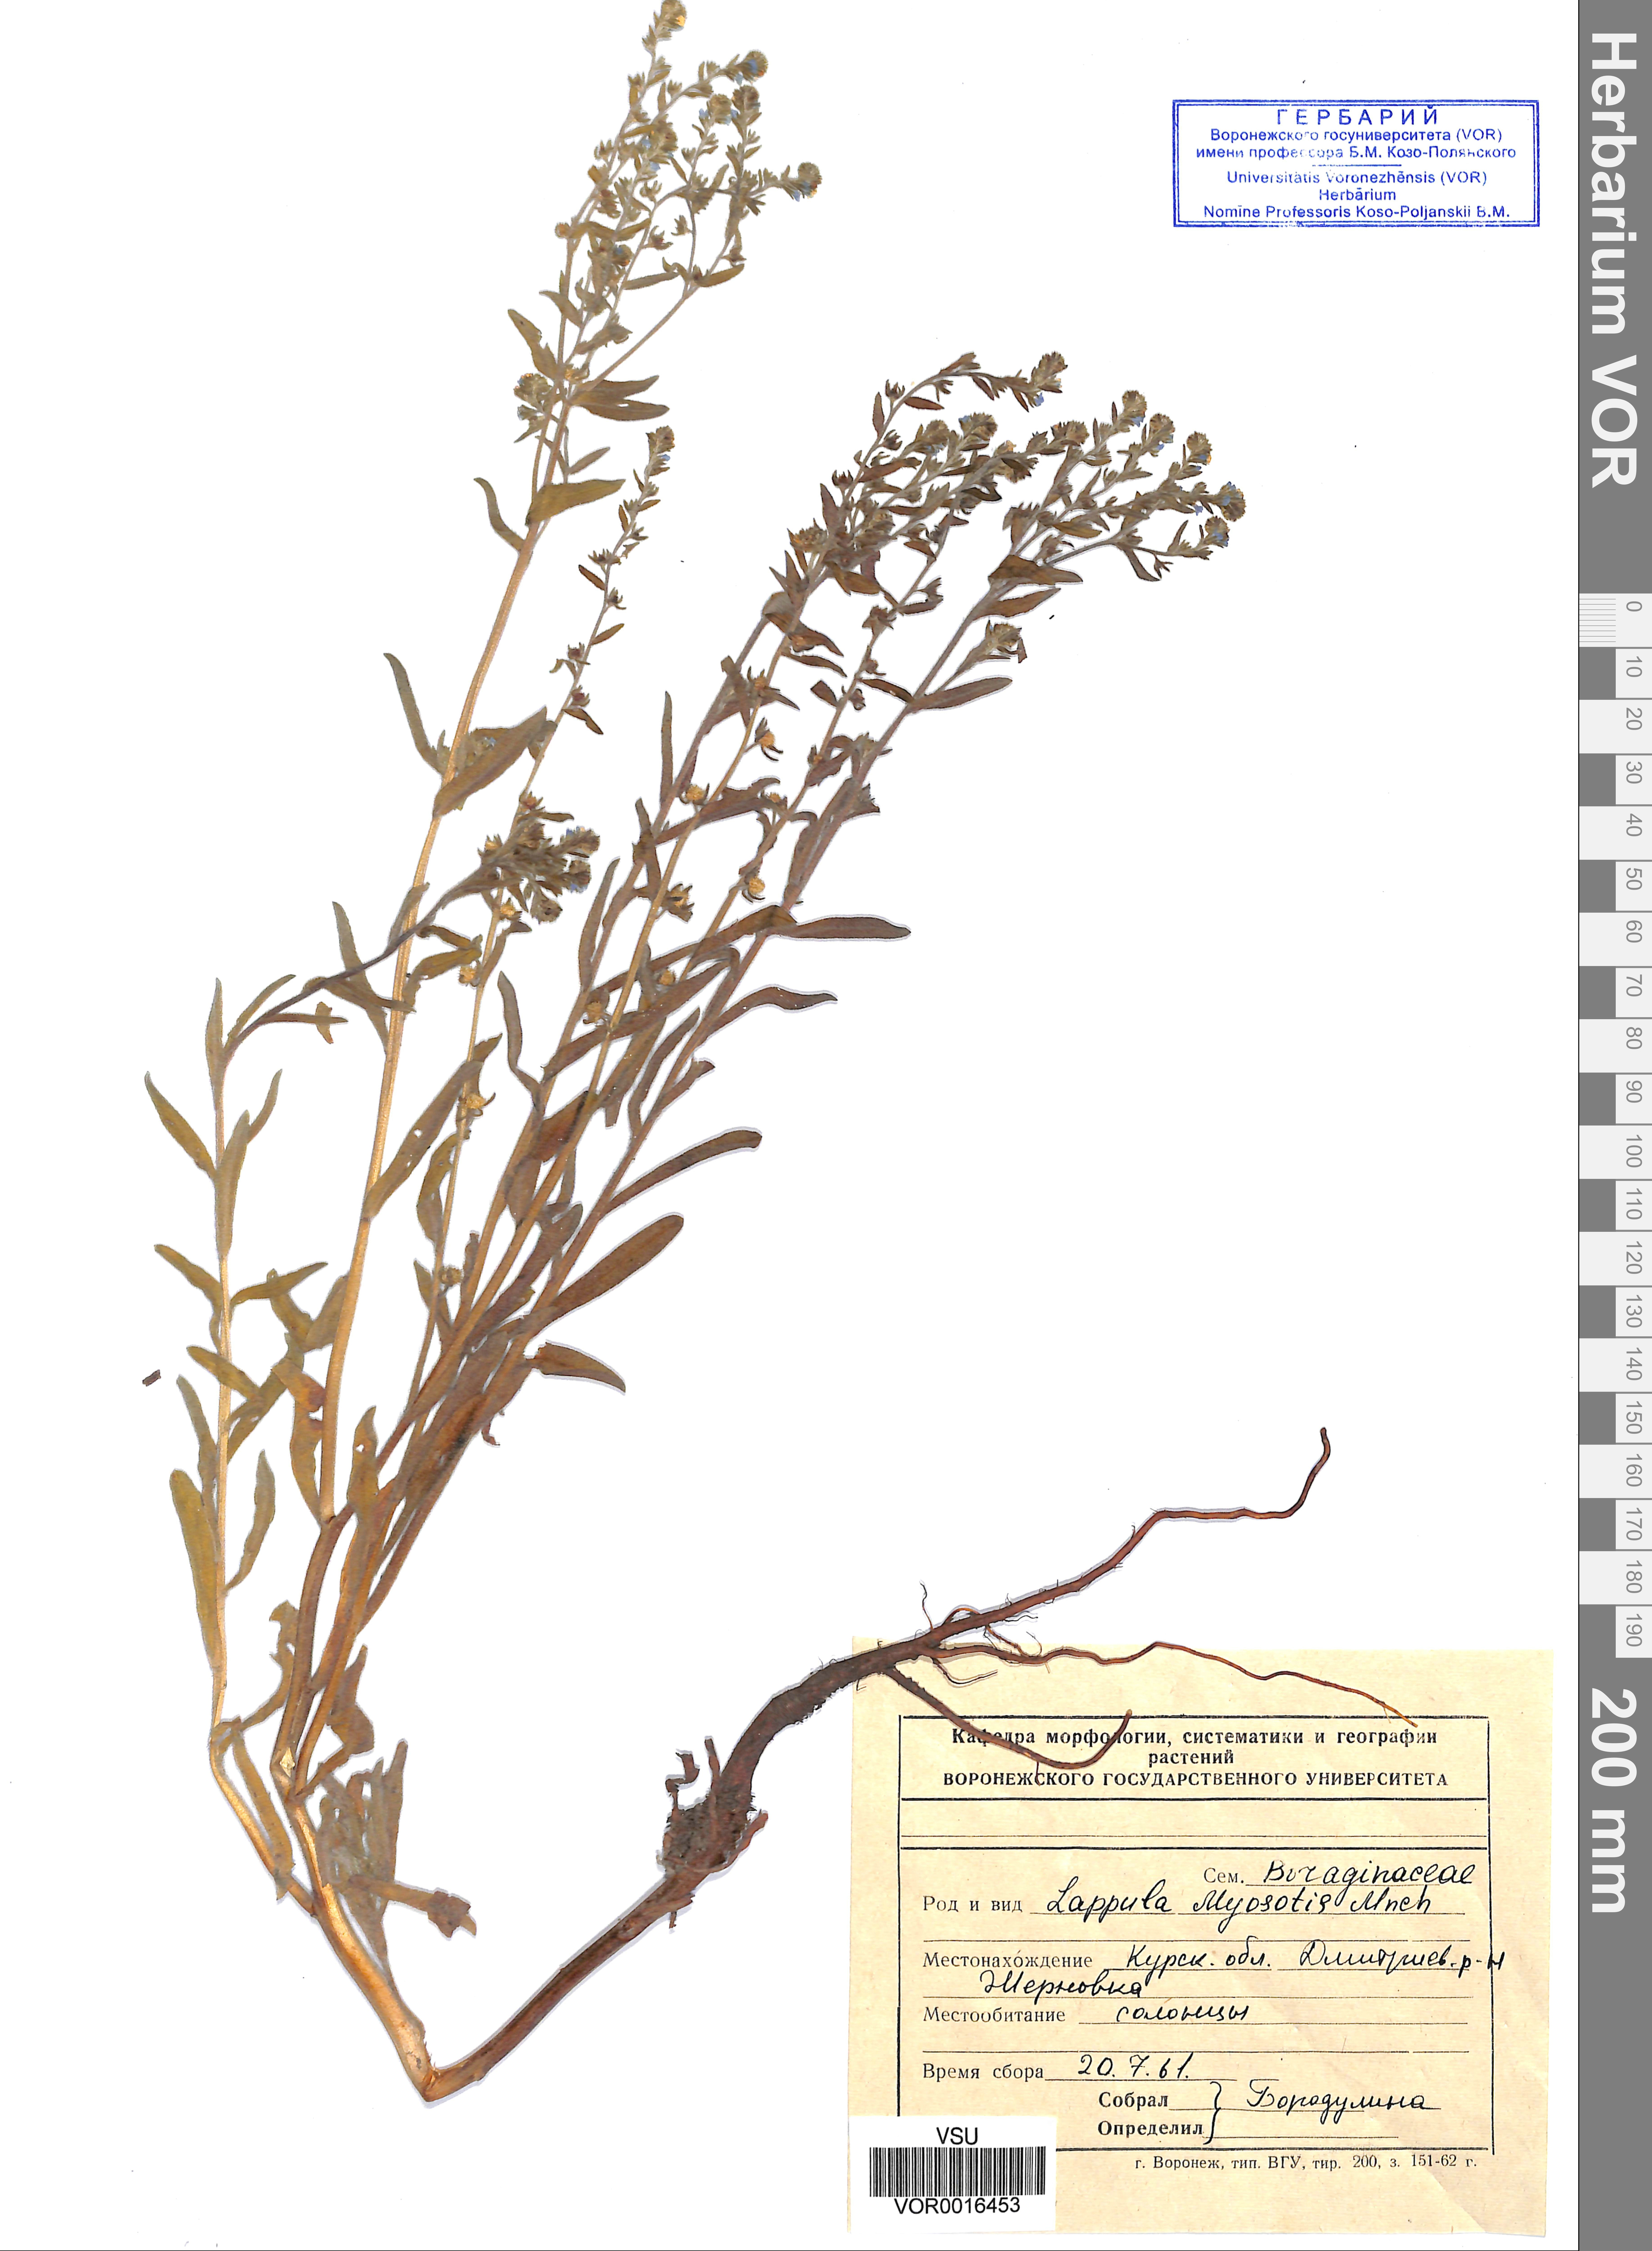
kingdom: Plantae
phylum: Tracheophyta
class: Magnoliopsida
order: Boraginales
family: Boraginaceae
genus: Lappula
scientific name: Lappula squarrosa
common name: European stickseed
